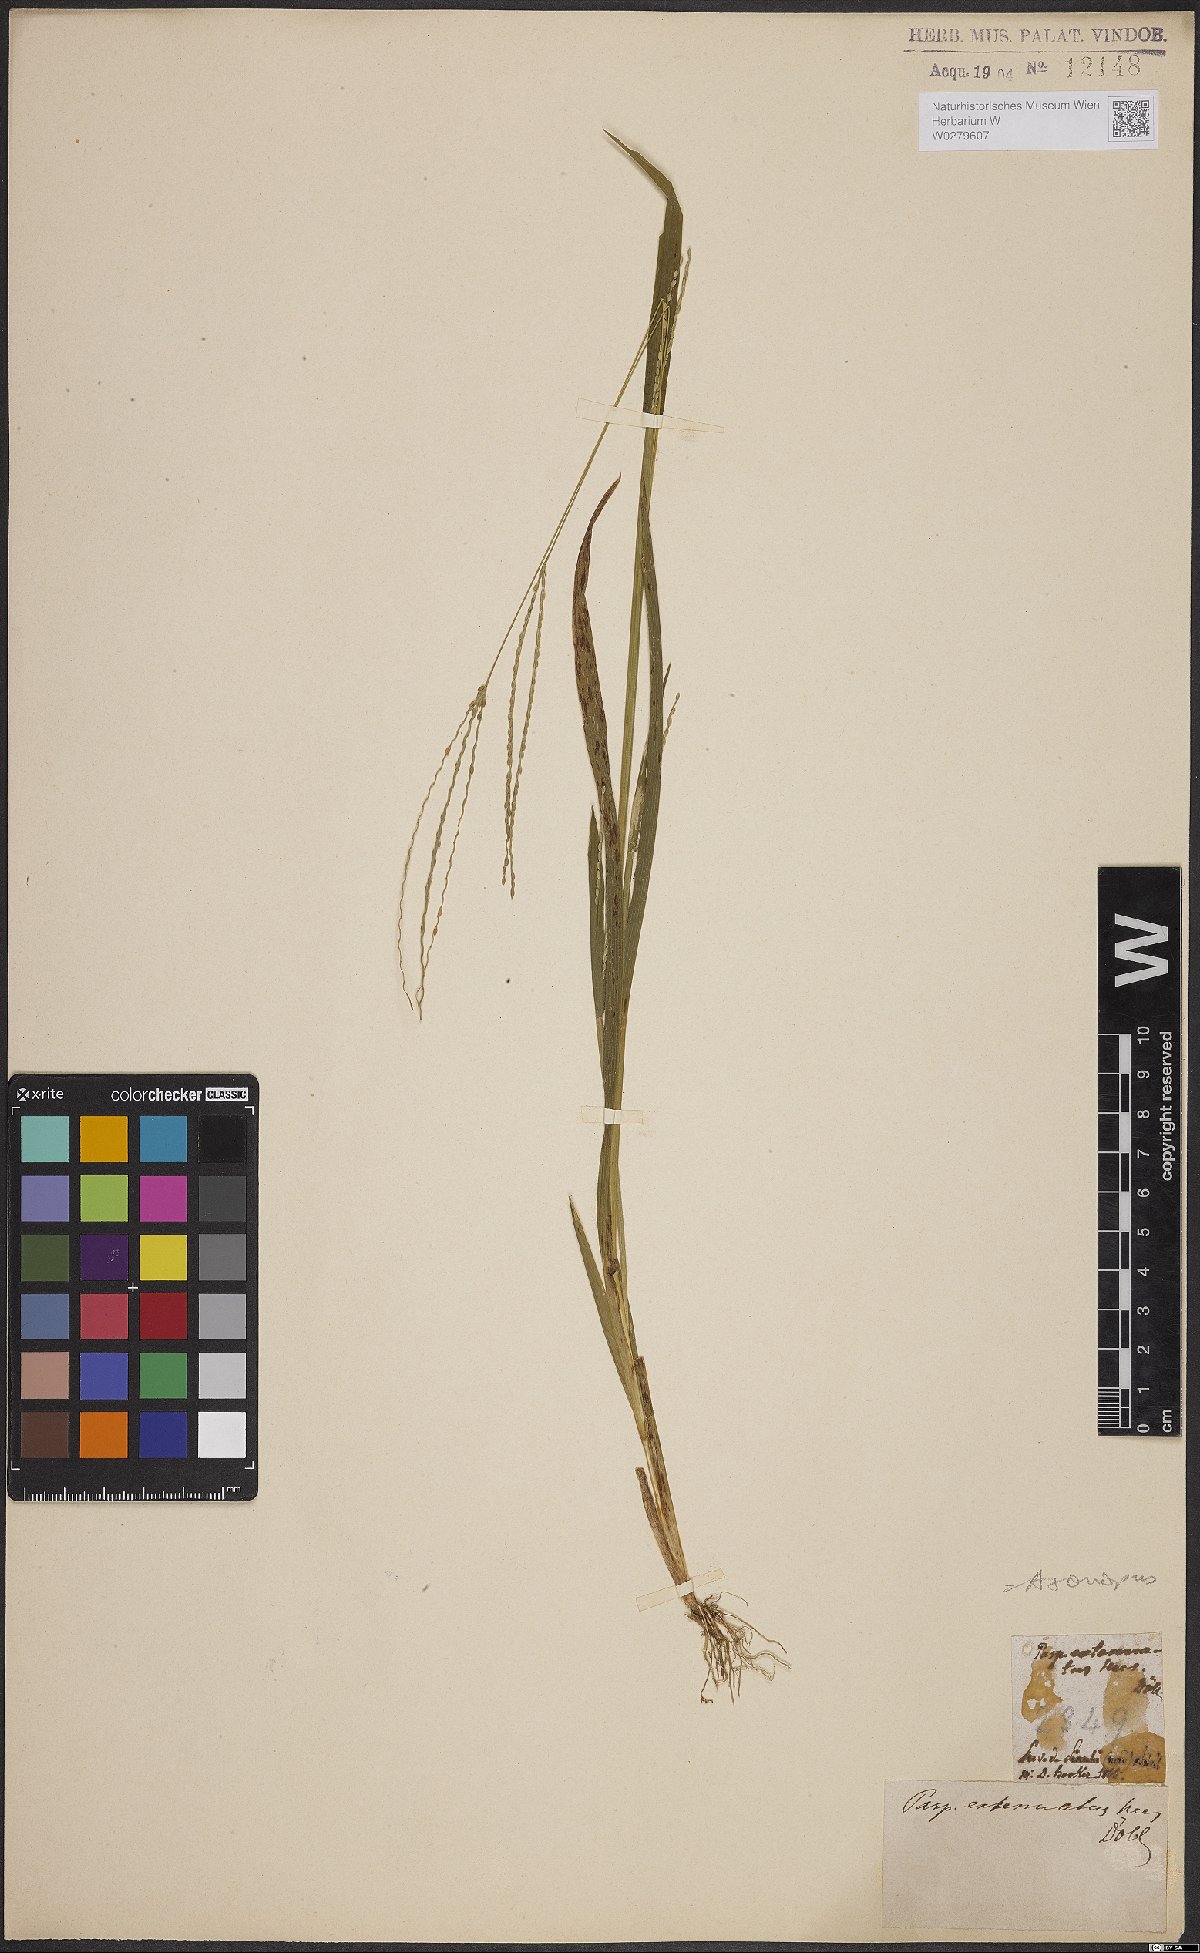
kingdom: Plantae
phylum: Tracheophyta
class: Liliopsida
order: Poales
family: Poaceae
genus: Axonopus
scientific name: Axonopus capillaris
